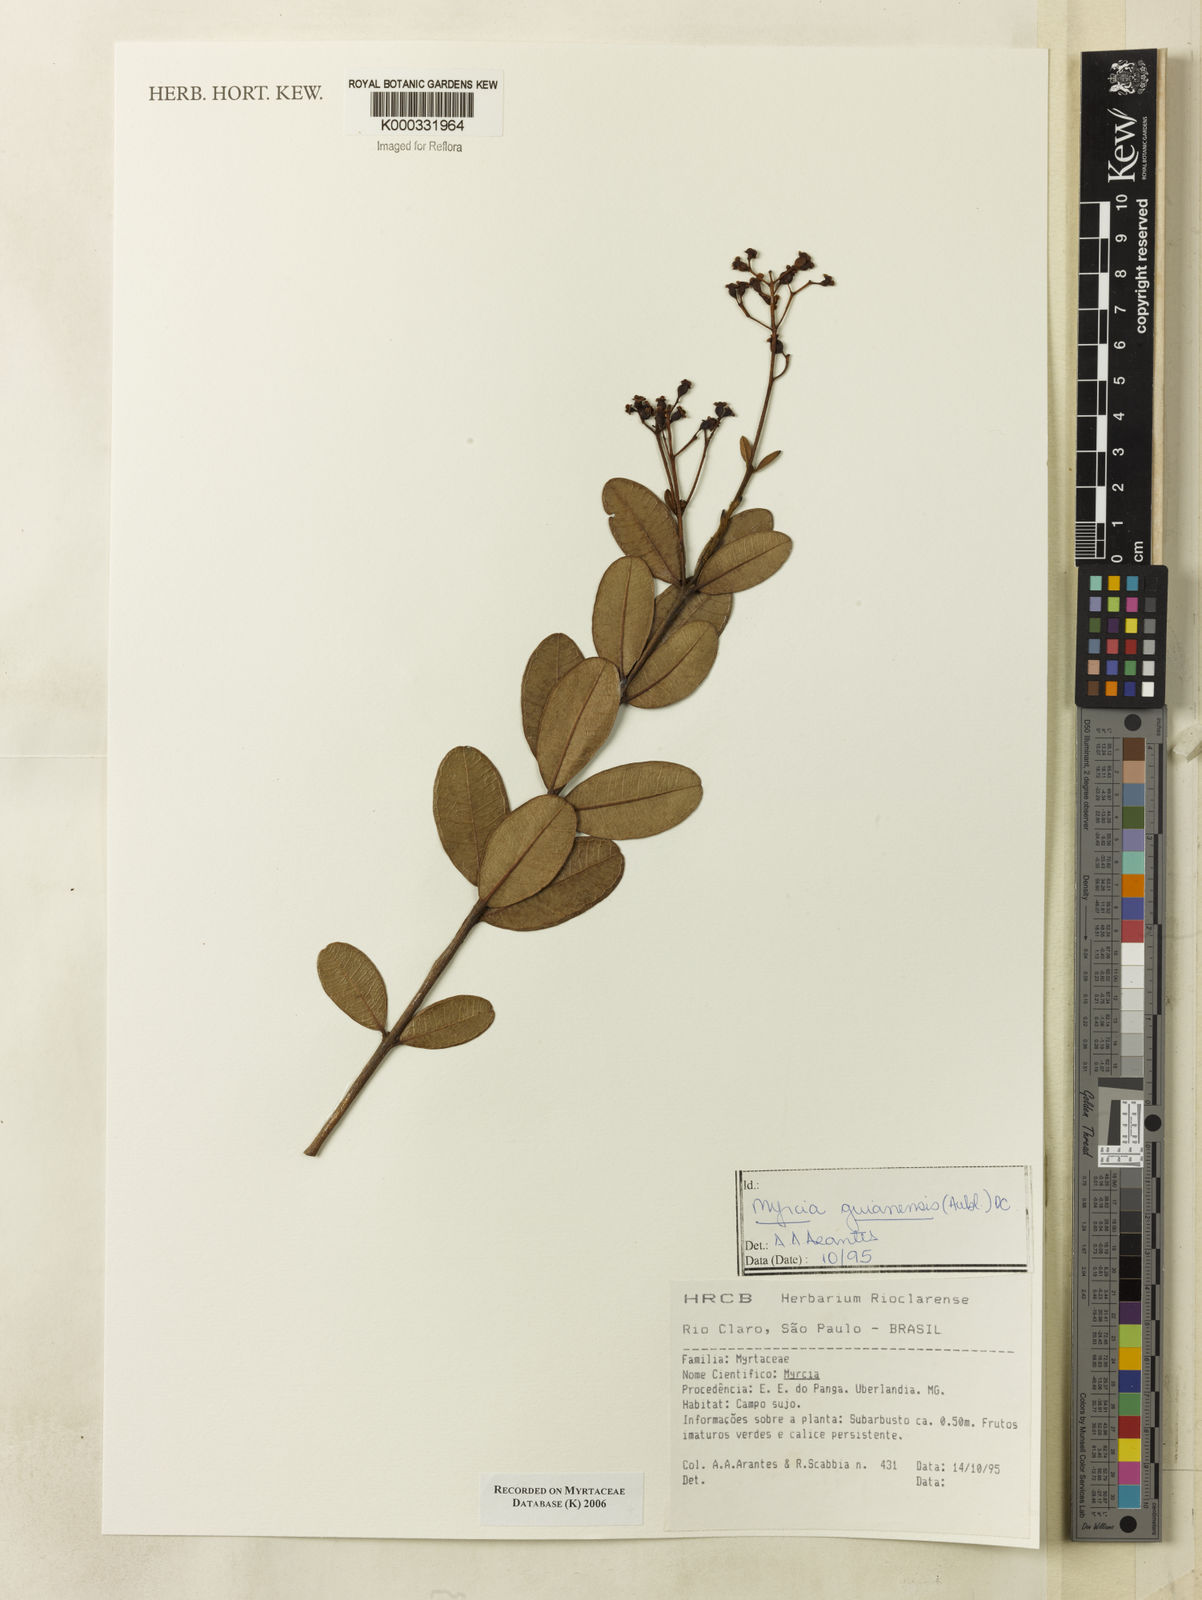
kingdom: Plantae
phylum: Tracheophyta
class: Magnoliopsida
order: Myrtales
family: Myrtaceae
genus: Myrcia
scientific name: Myrcia guianensis
